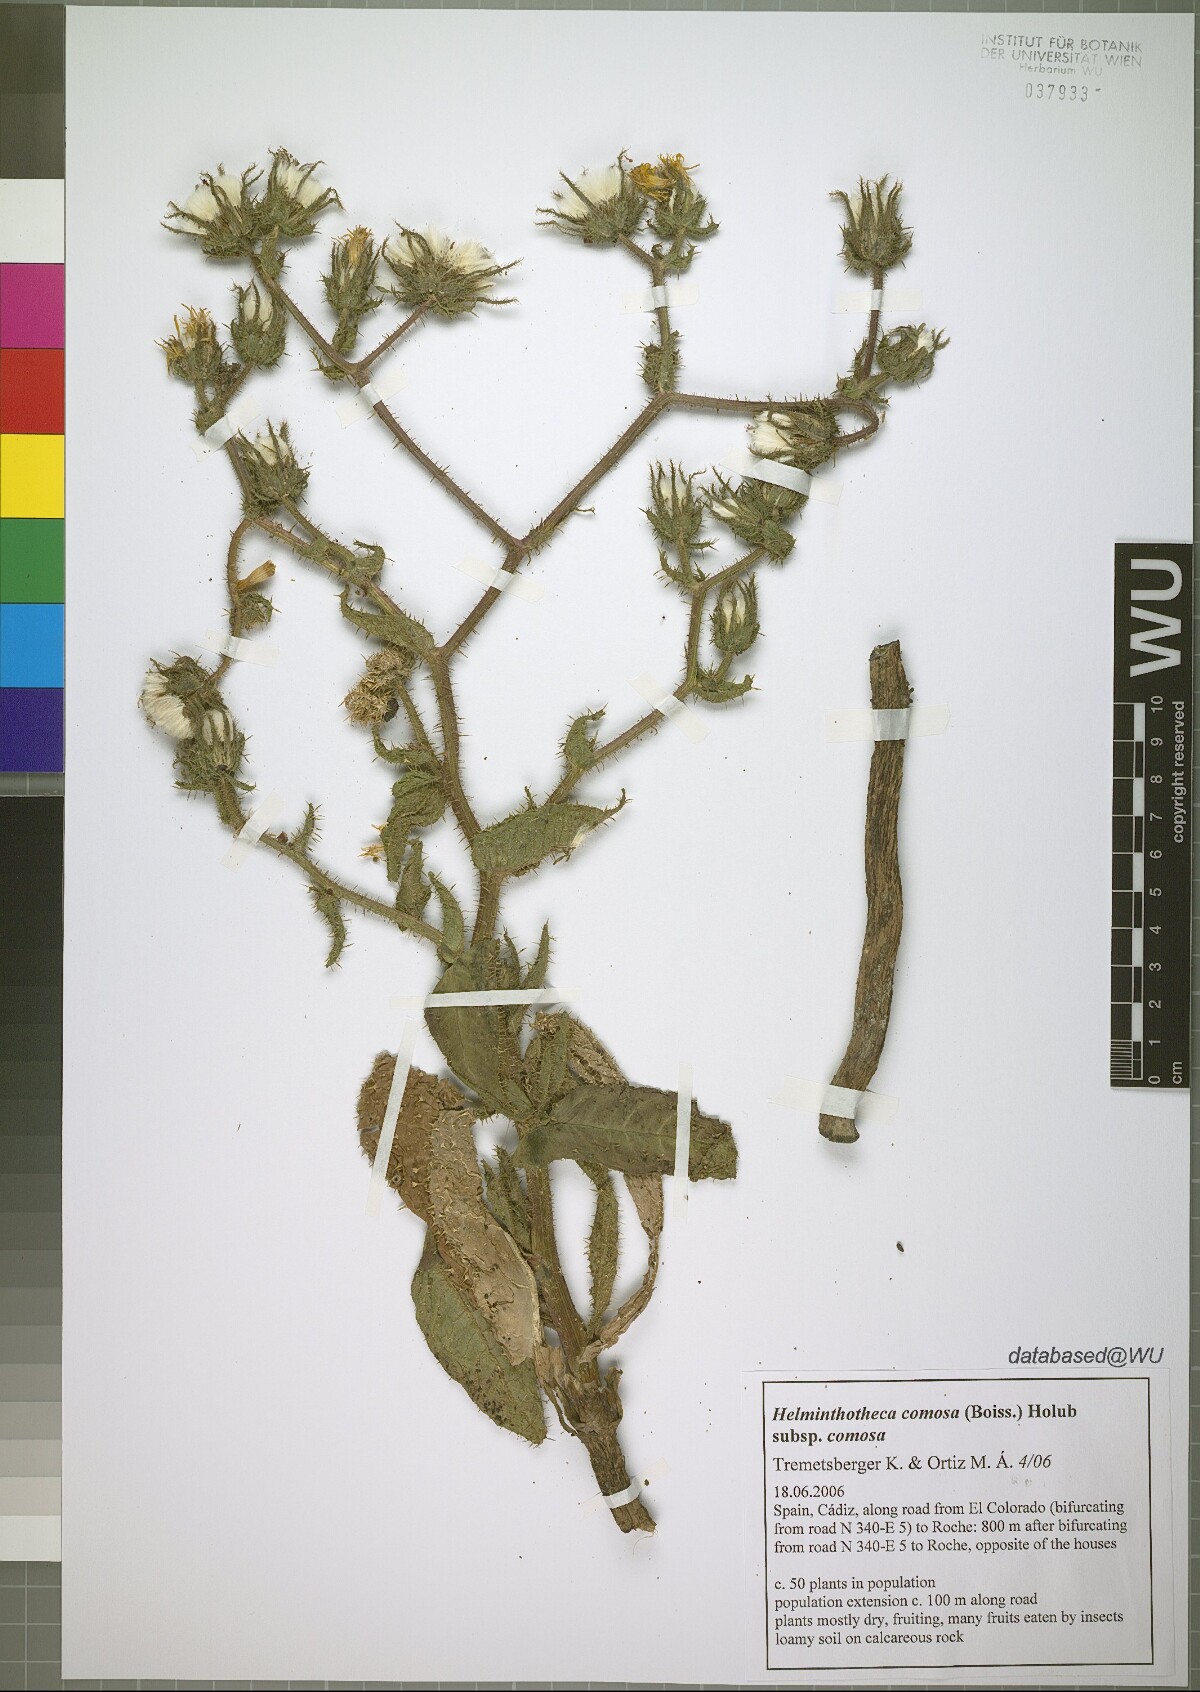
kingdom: Plantae
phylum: Tracheophyta
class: Magnoliopsida
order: Asterales
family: Asteraceae
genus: Helminthotheca
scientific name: Helminthotheca comosa
